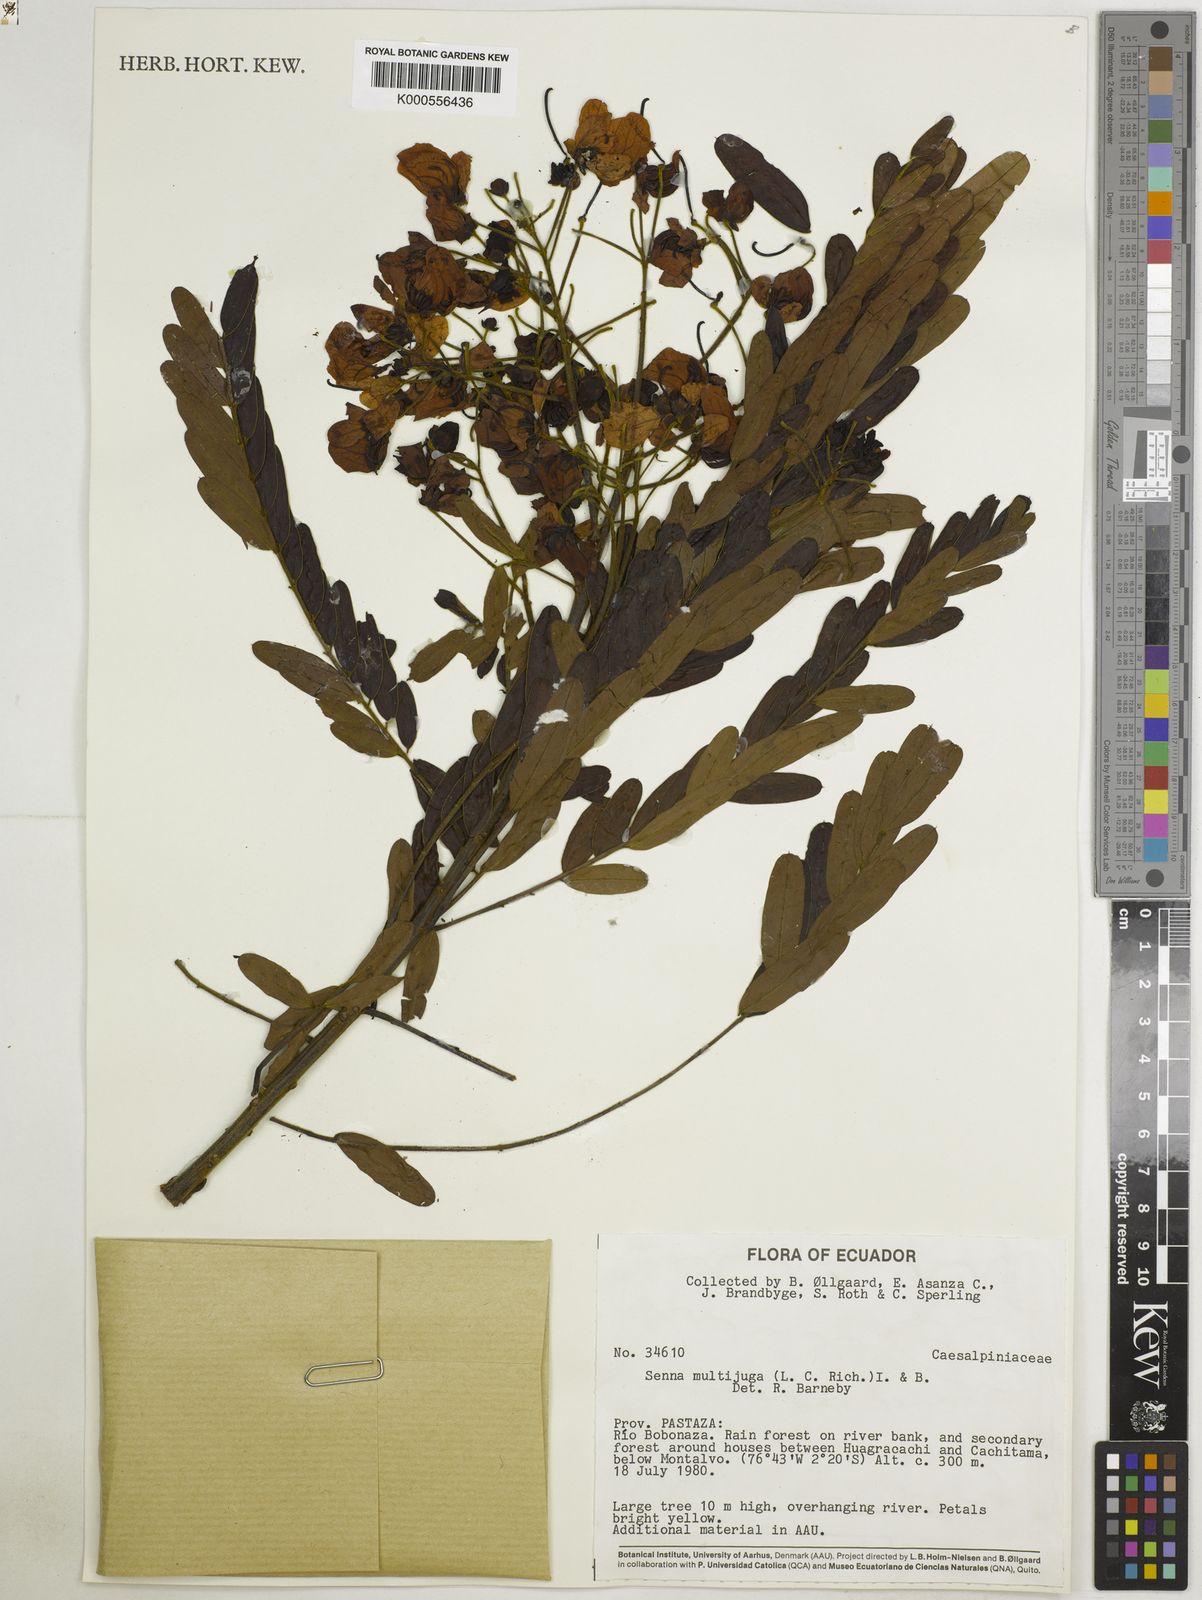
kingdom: Plantae
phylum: Tracheophyta
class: Magnoliopsida
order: Fabales
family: Fabaceae
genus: Senna
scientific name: Senna multijuga
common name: False sicklepod
